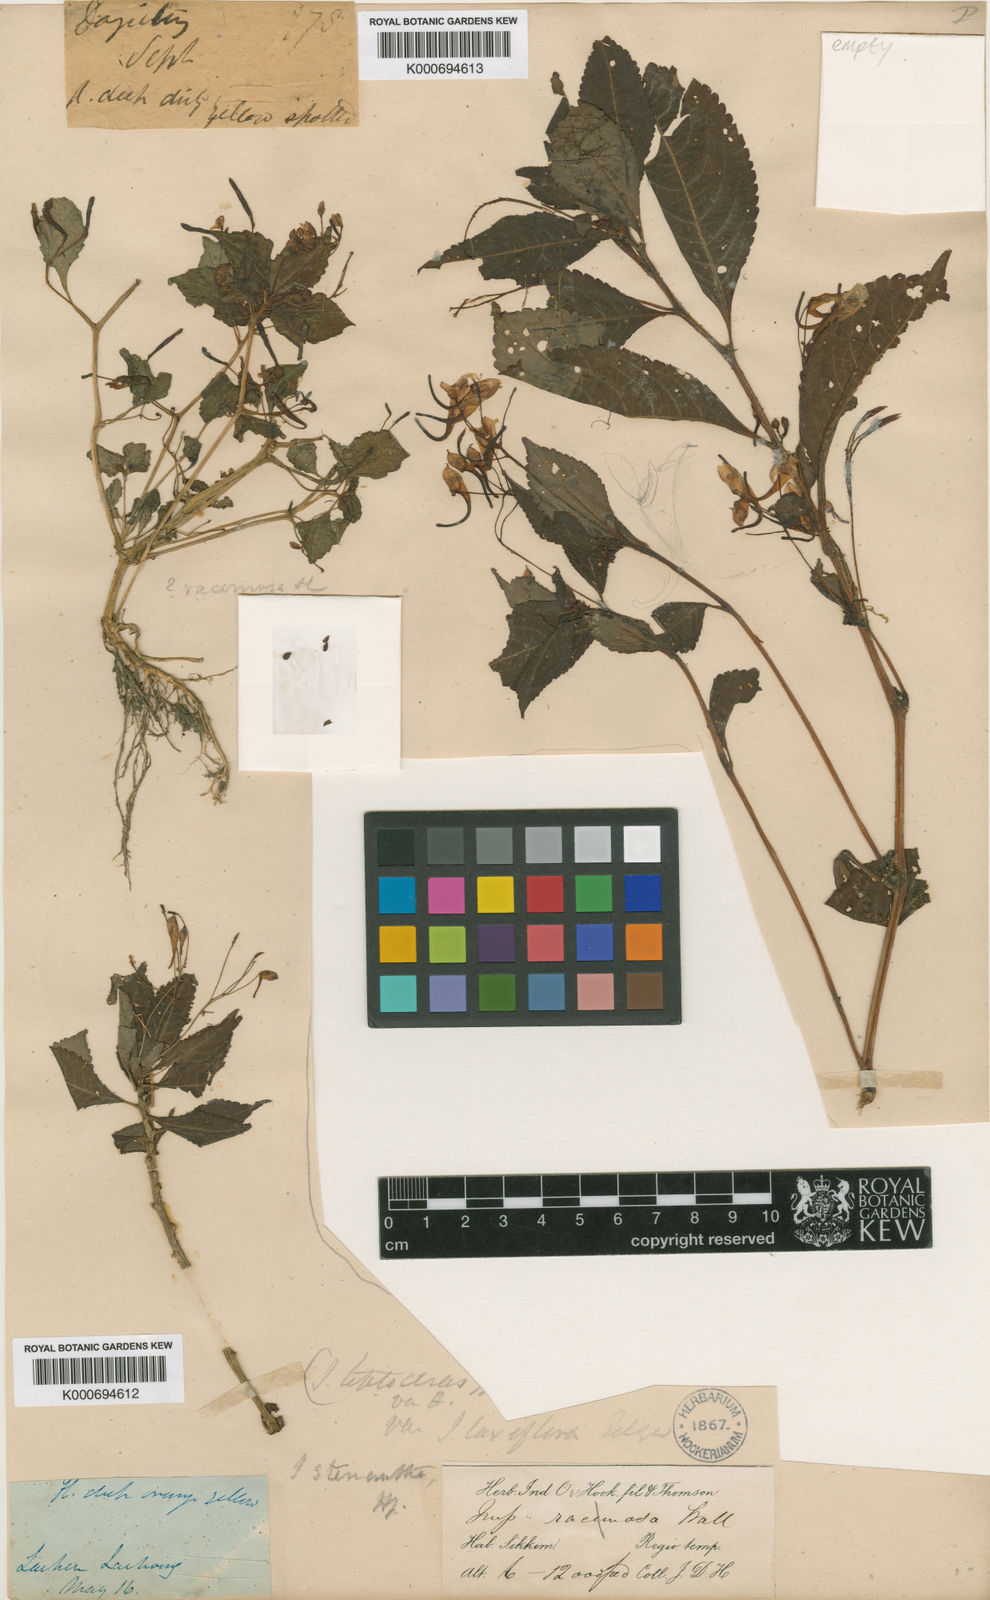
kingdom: Plantae
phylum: Tracheophyta
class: Magnoliopsida
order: Ericales
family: Balsaminaceae
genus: Impatiens
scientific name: Impatiens stenantha
